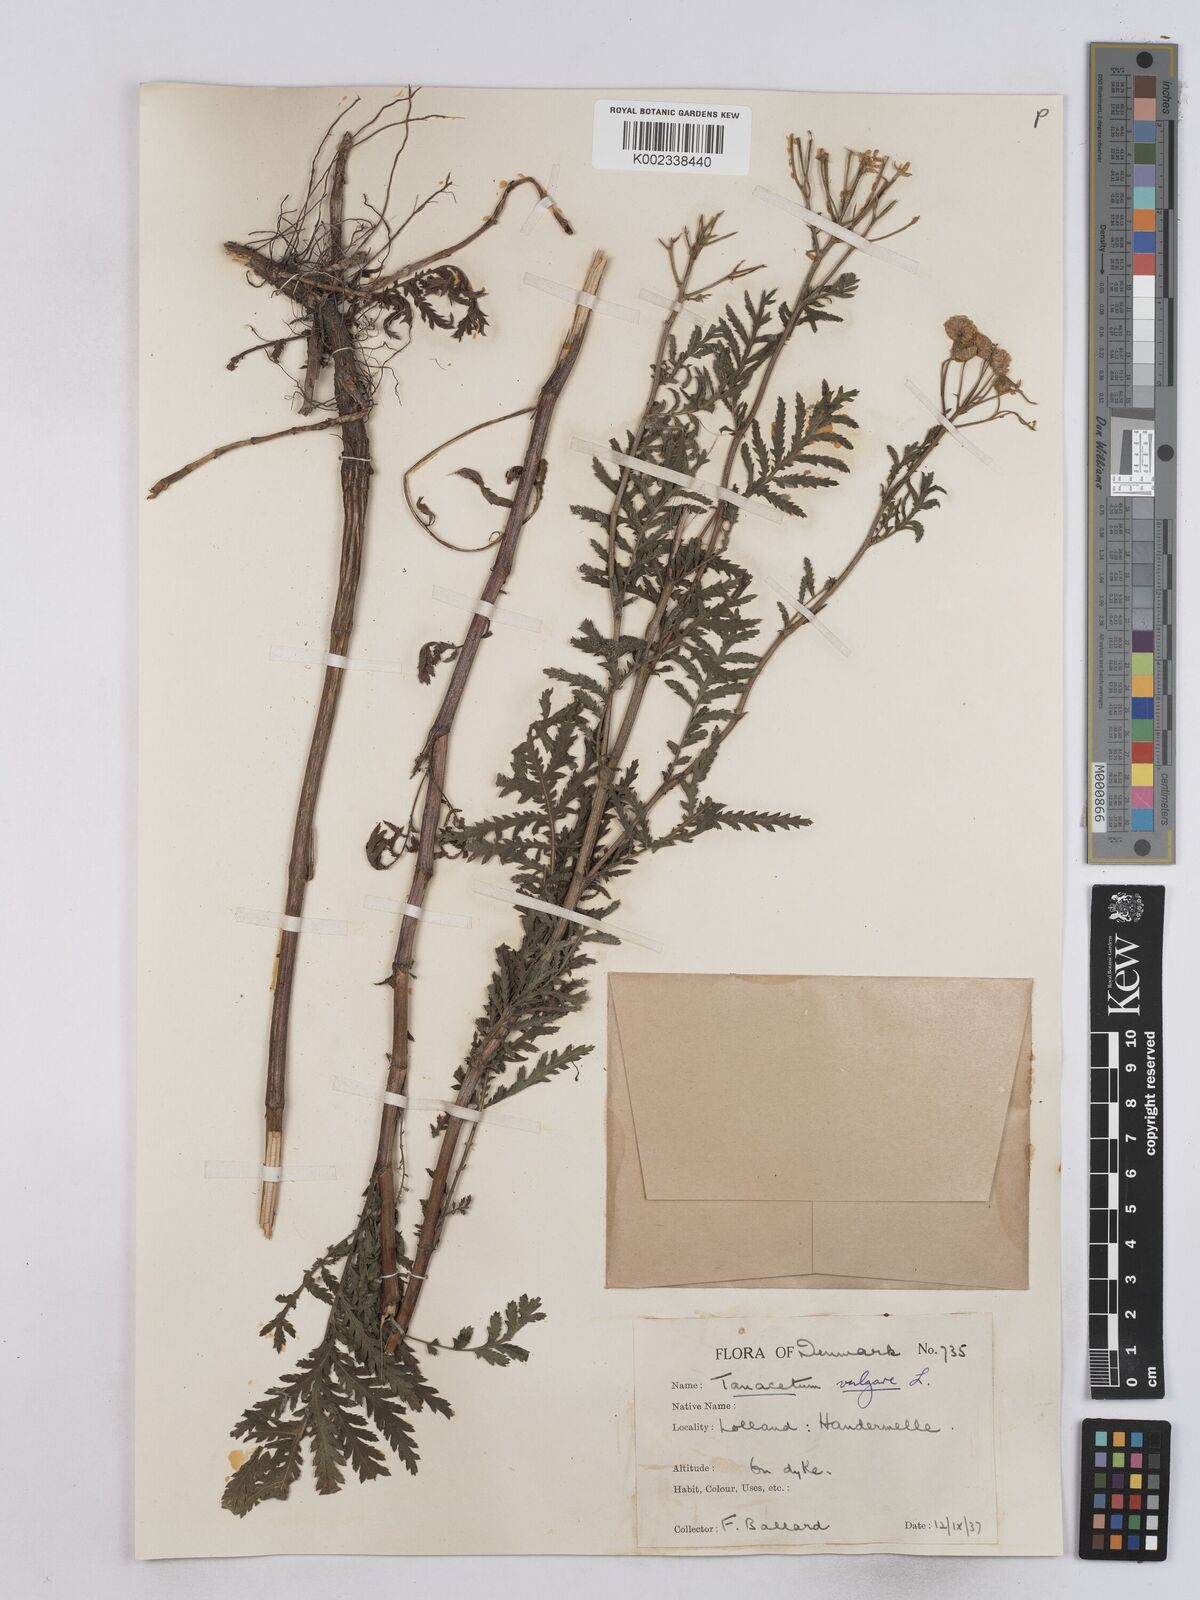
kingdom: Plantae
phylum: Tracheophyta
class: Magnoliopsida
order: Asterales
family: Asteraceae
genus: Tanacetum
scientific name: Tanacetum vulgare
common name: Common tansy
